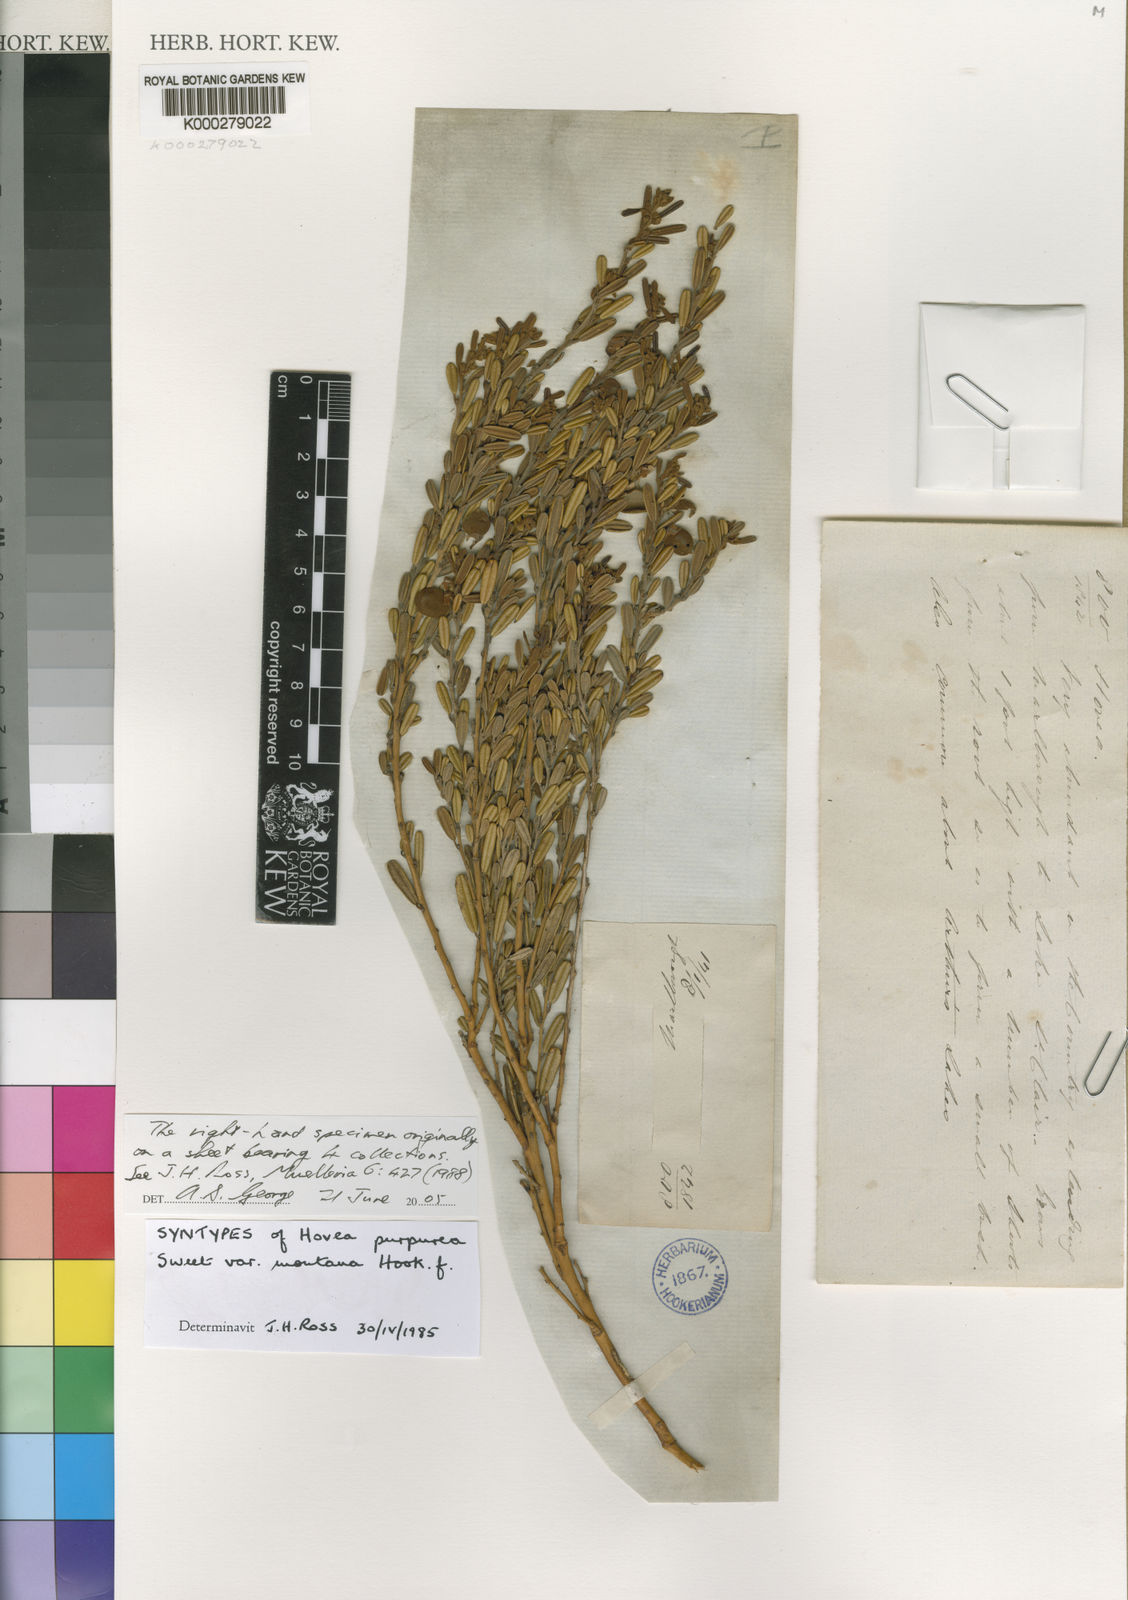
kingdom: Plantae
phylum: Tracheophyta
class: Magnoliopsida
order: Fabales
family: Fabaceae
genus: Hovea
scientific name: Hovea longifolia
